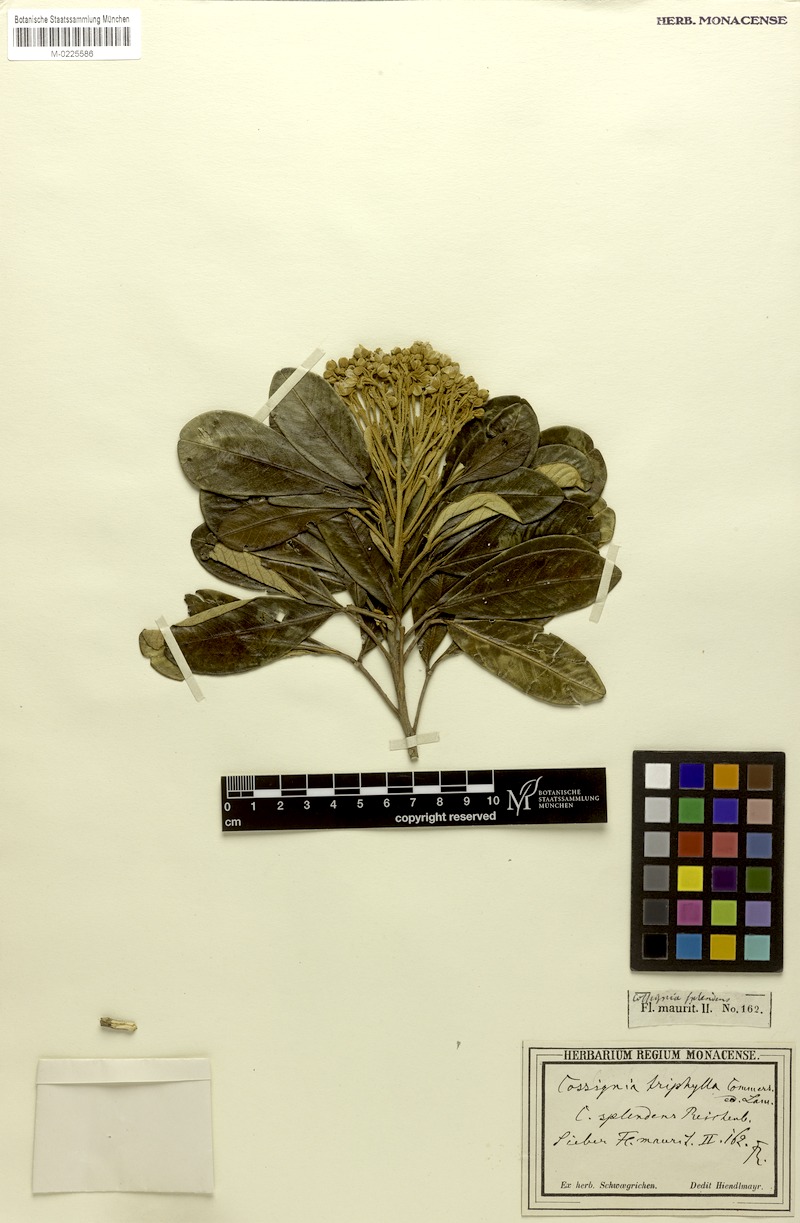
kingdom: Plantae
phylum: Tracheophyta
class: Magnoliopsida
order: Sapindales
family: Sapindaceae
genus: Cossinia
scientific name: Cossinia pinnata
